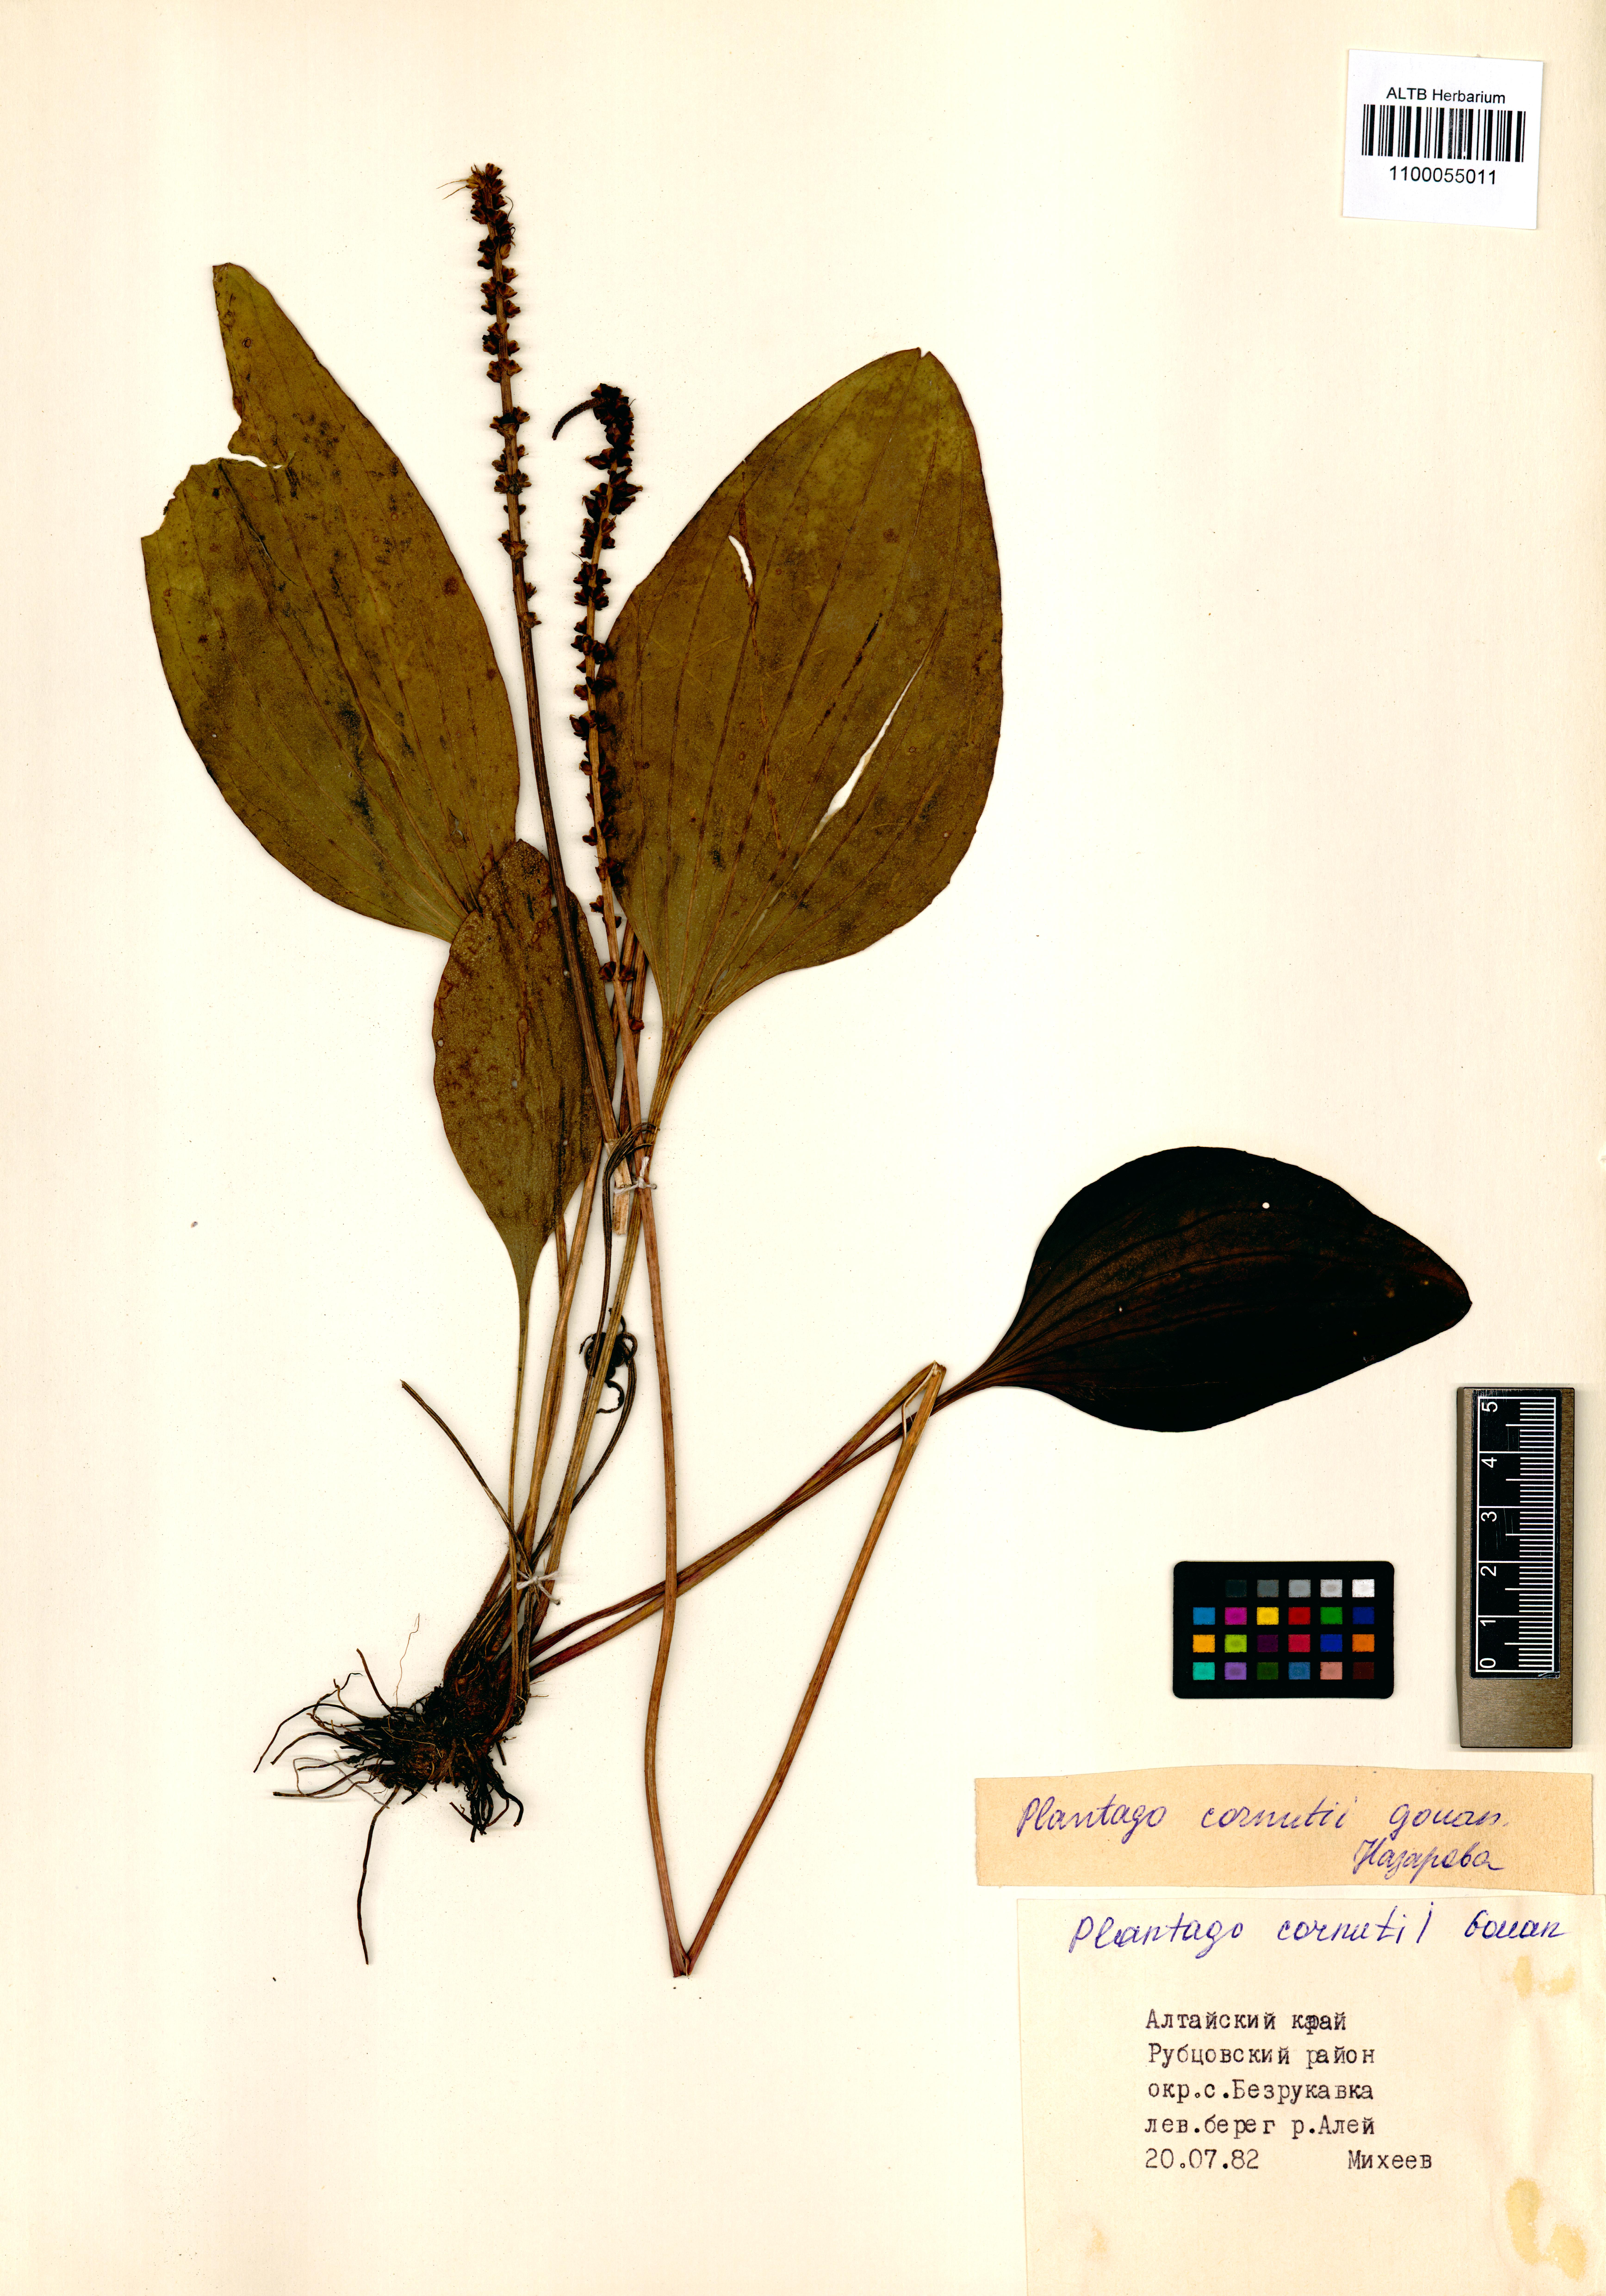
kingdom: Plantae
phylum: Tracheophyta
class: Magnoliopsida
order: Lamiales
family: Plantaginaceae
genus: Plantago
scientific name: Plantago cornuti
